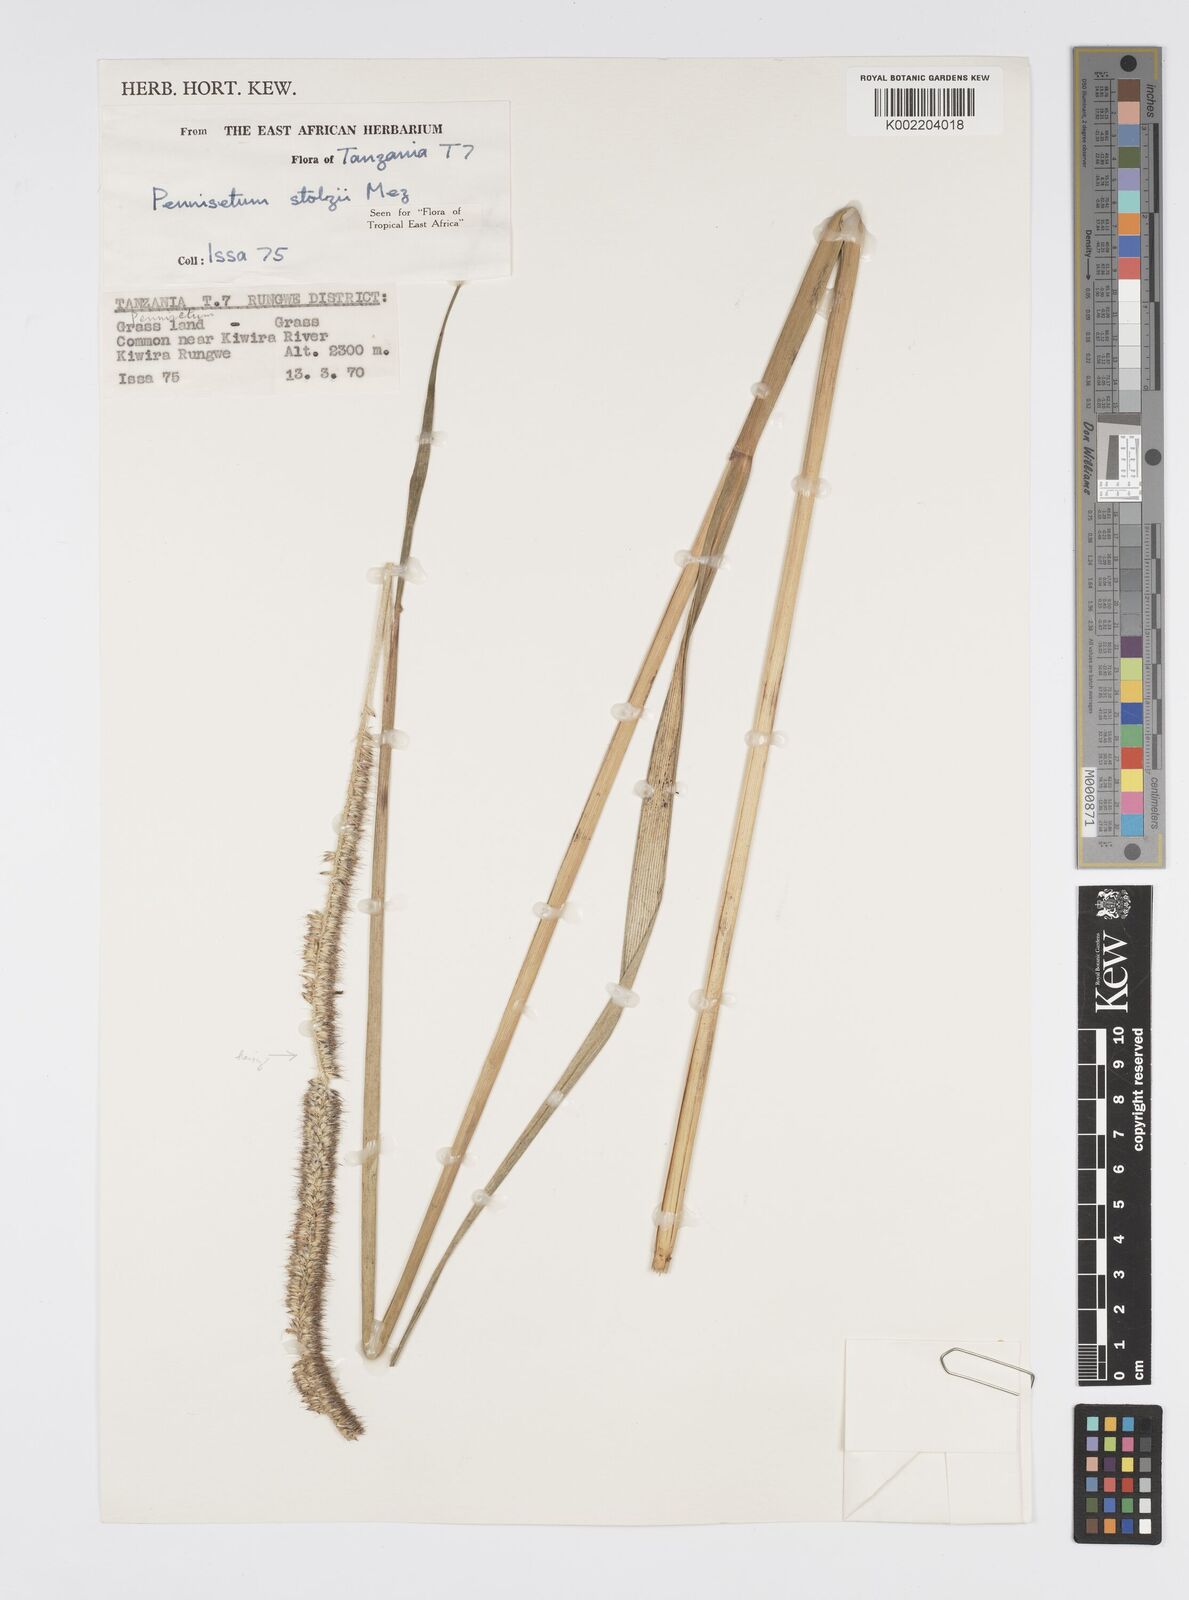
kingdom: Plantae
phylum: Tracheophyta
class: Liliopsida
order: Poales
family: Poaceae
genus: Cenchrus
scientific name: Cenchrus caudatus
